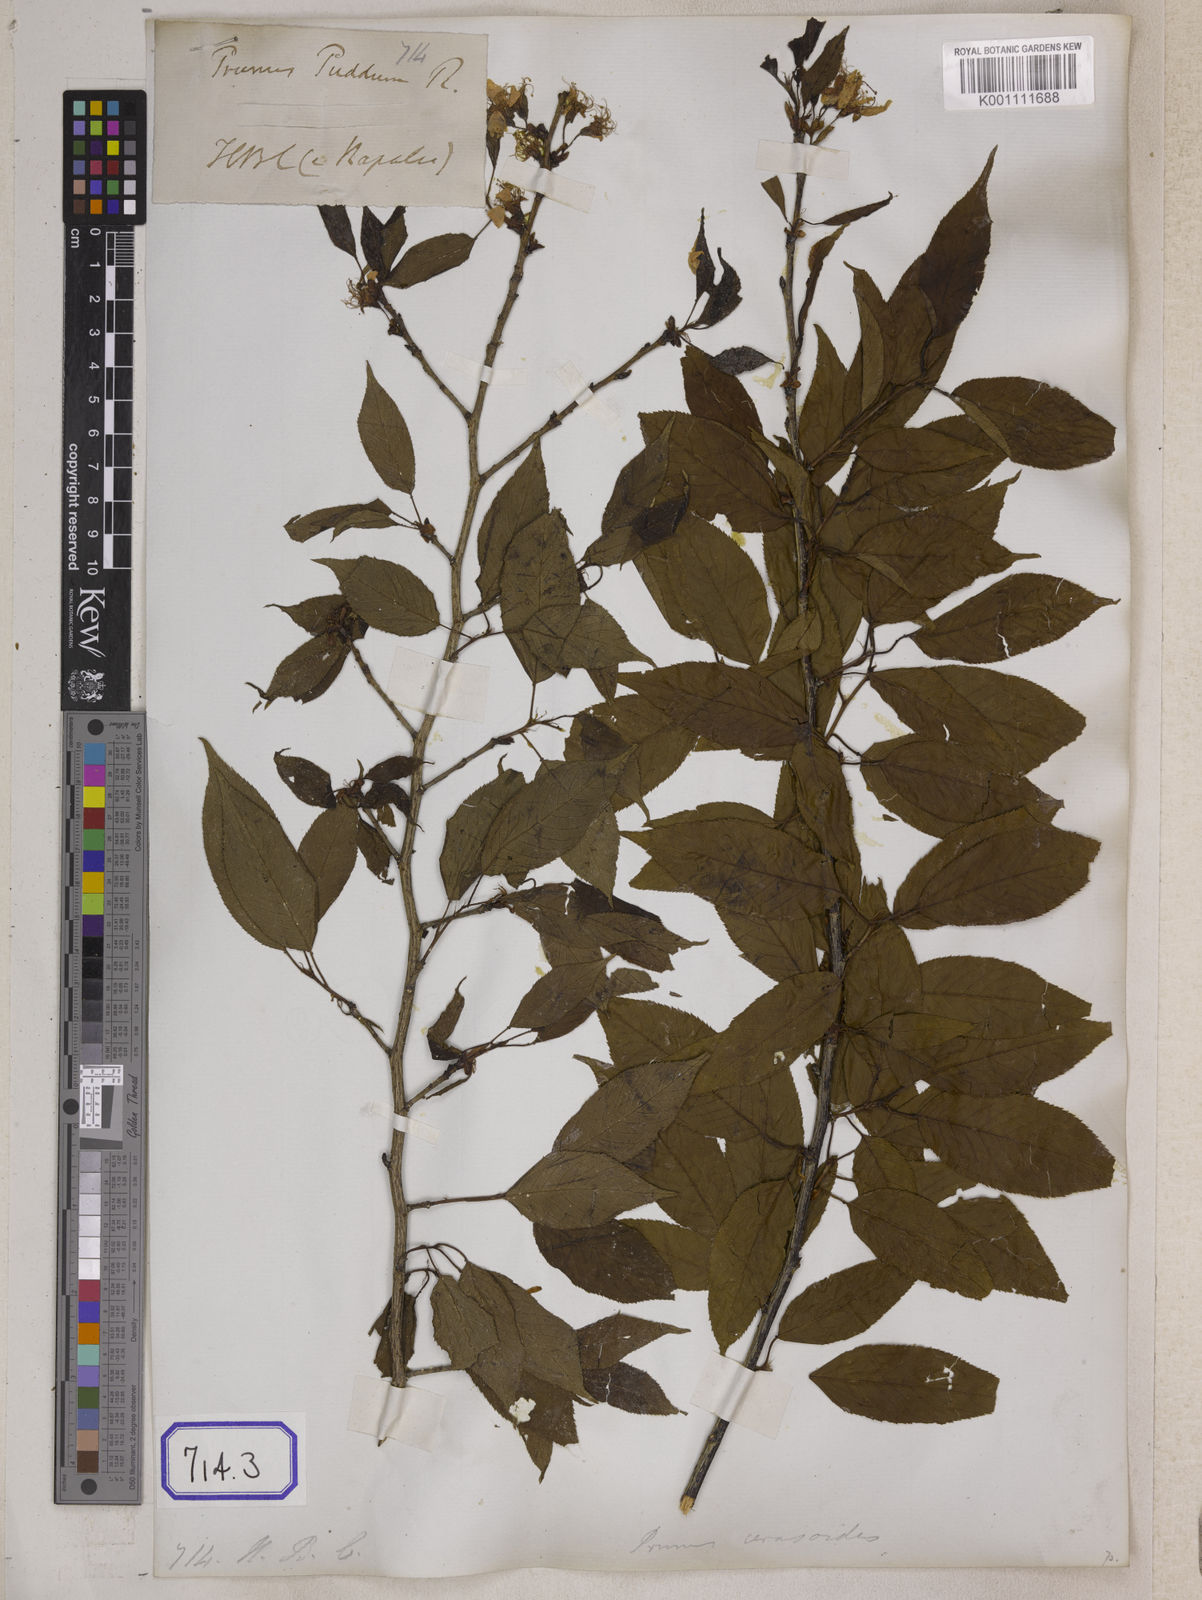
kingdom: Plantae
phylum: Tracheophyta
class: Magnoliopsida
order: Rosales
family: Rosaceae
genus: Prunus
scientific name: Prunus Cerasus myrtifolia
